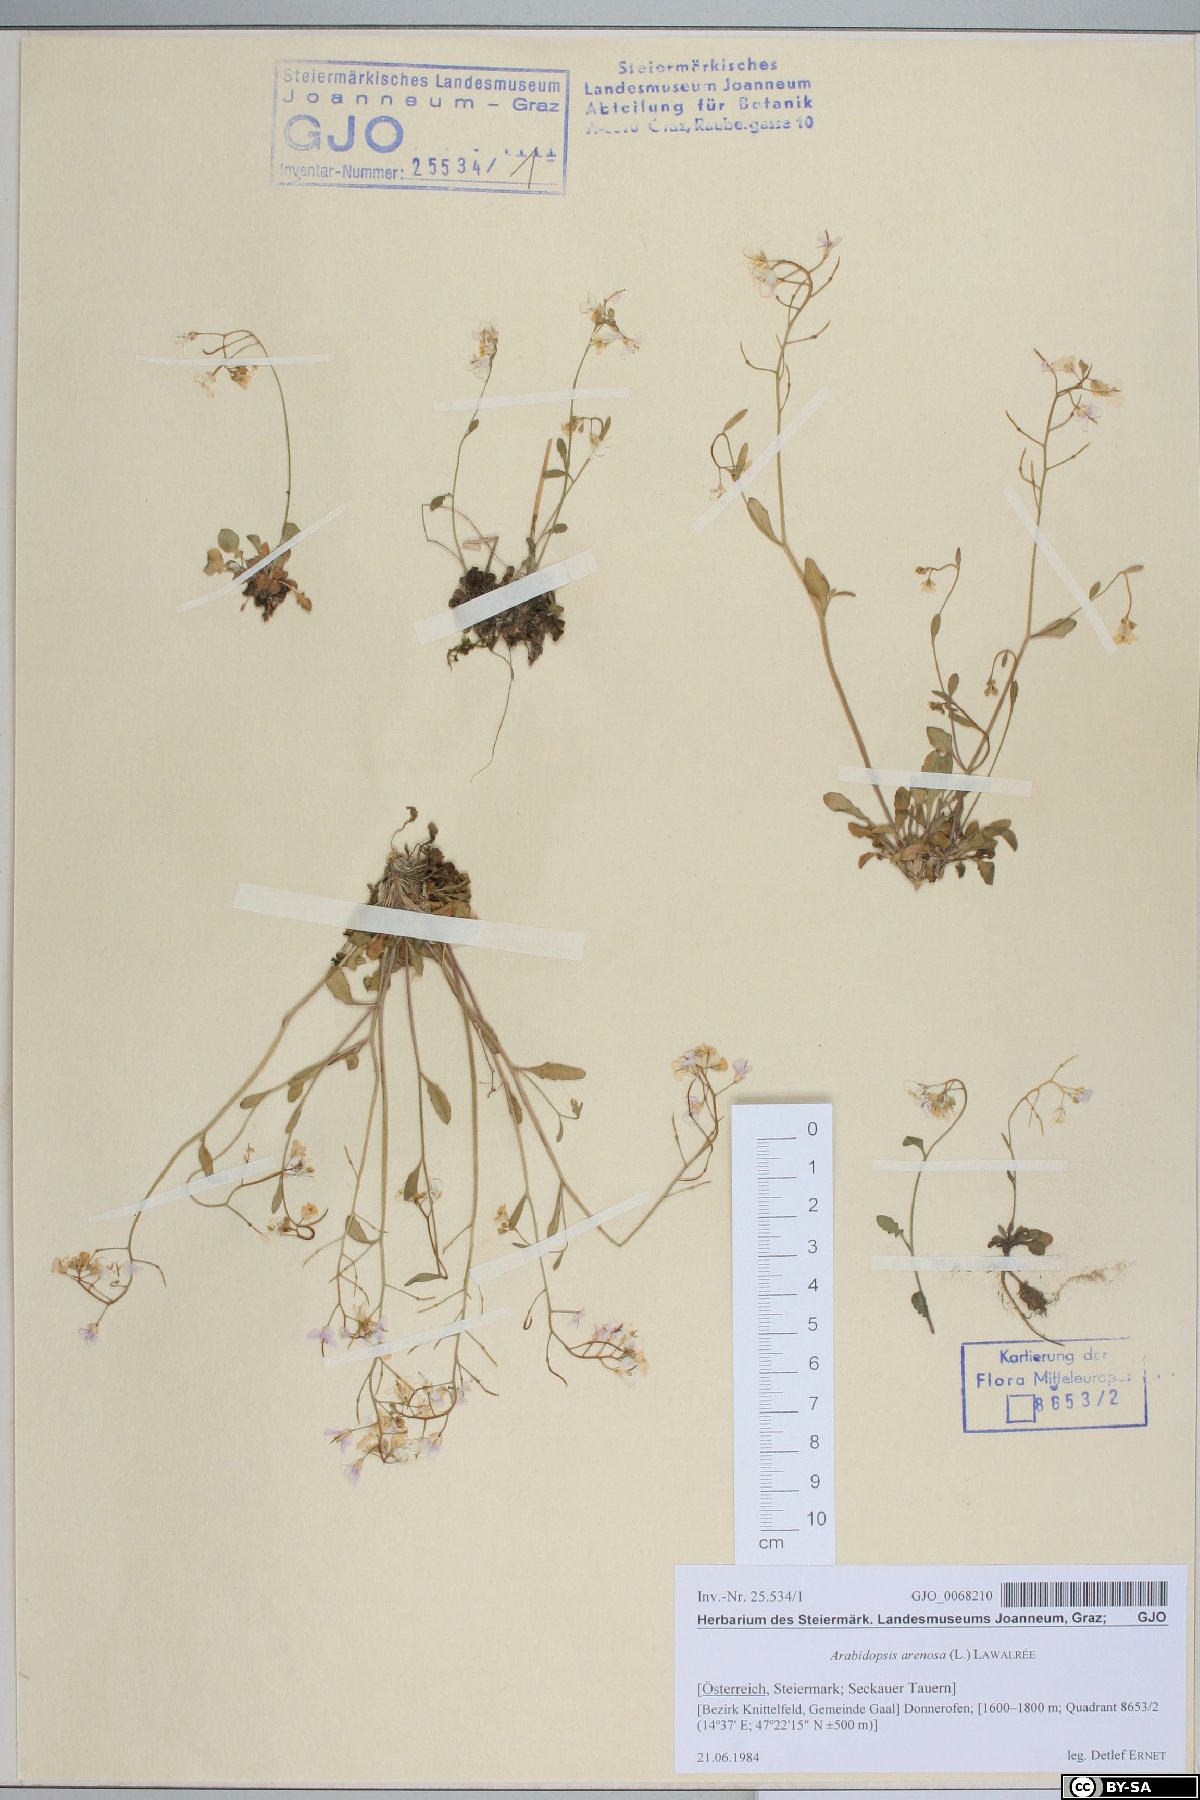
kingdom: Plantae
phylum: Tracheophyta
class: Magnoliopsida
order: Brassicales
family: Brassicaceae
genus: Arabidopsis
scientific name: Arabidopsis arenosa
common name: Sand rock-cress
